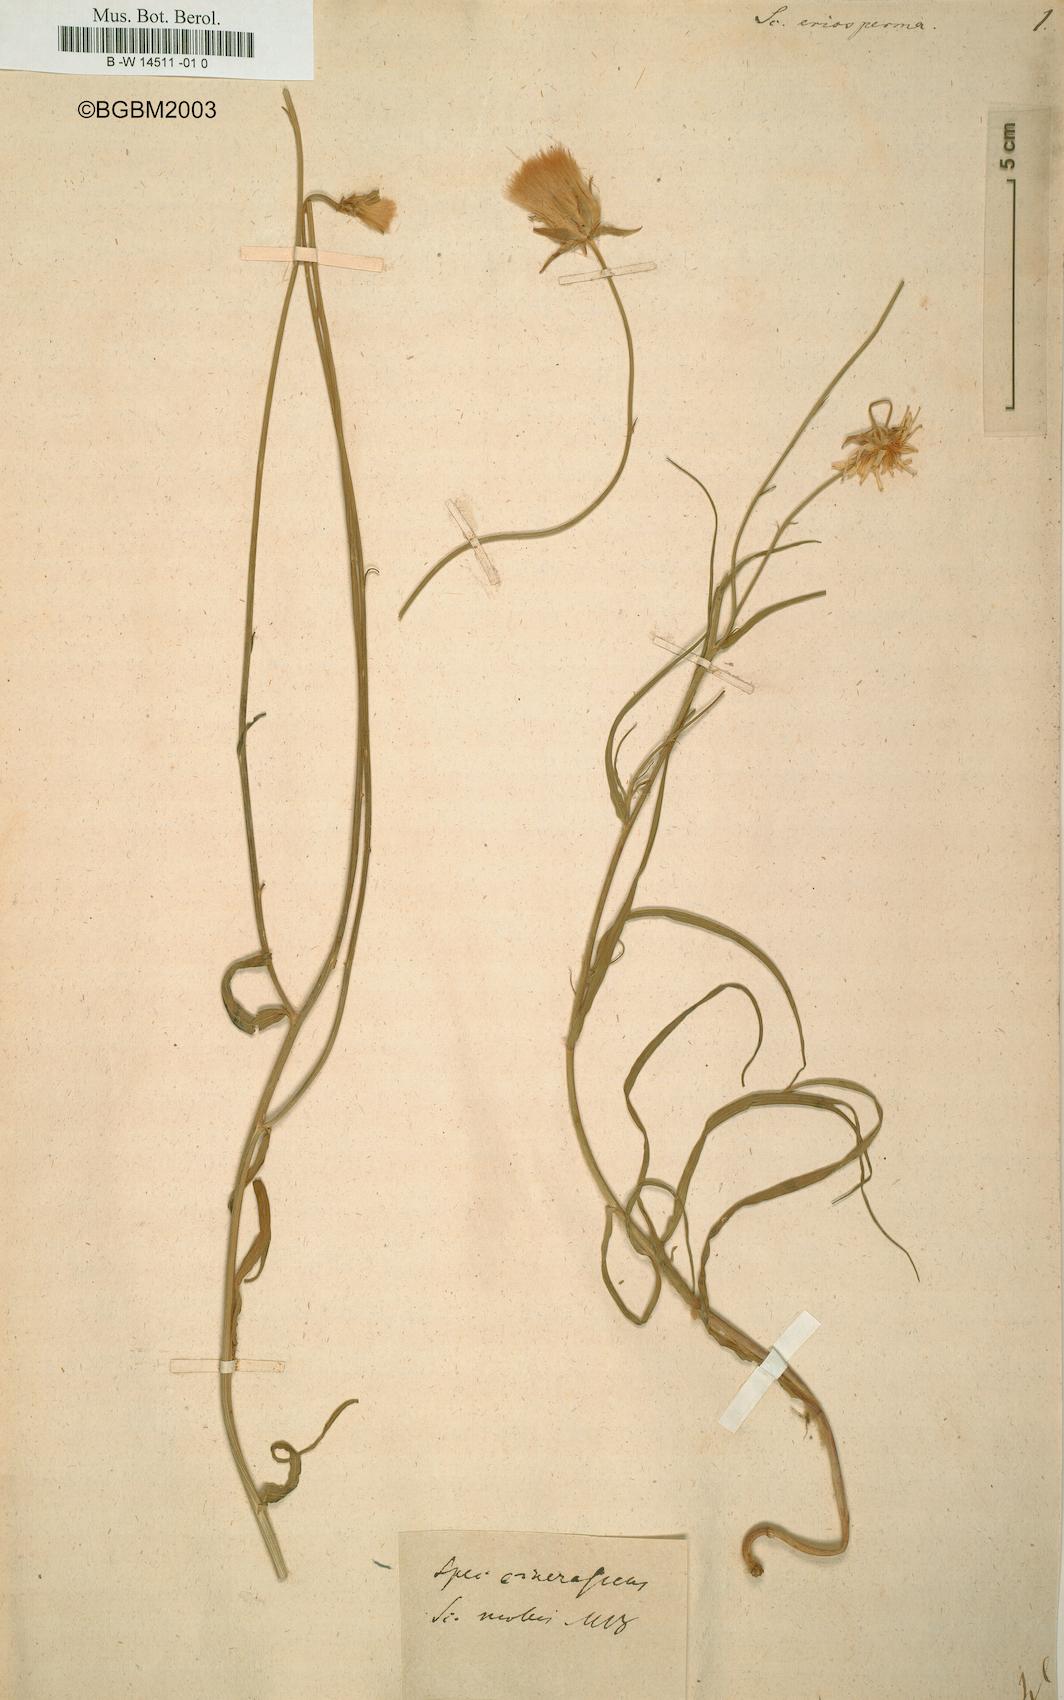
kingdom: Plantae
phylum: Tracheophyta
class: Magnoliopsida
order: Asterales
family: Asteraceae
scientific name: Asteraceae
